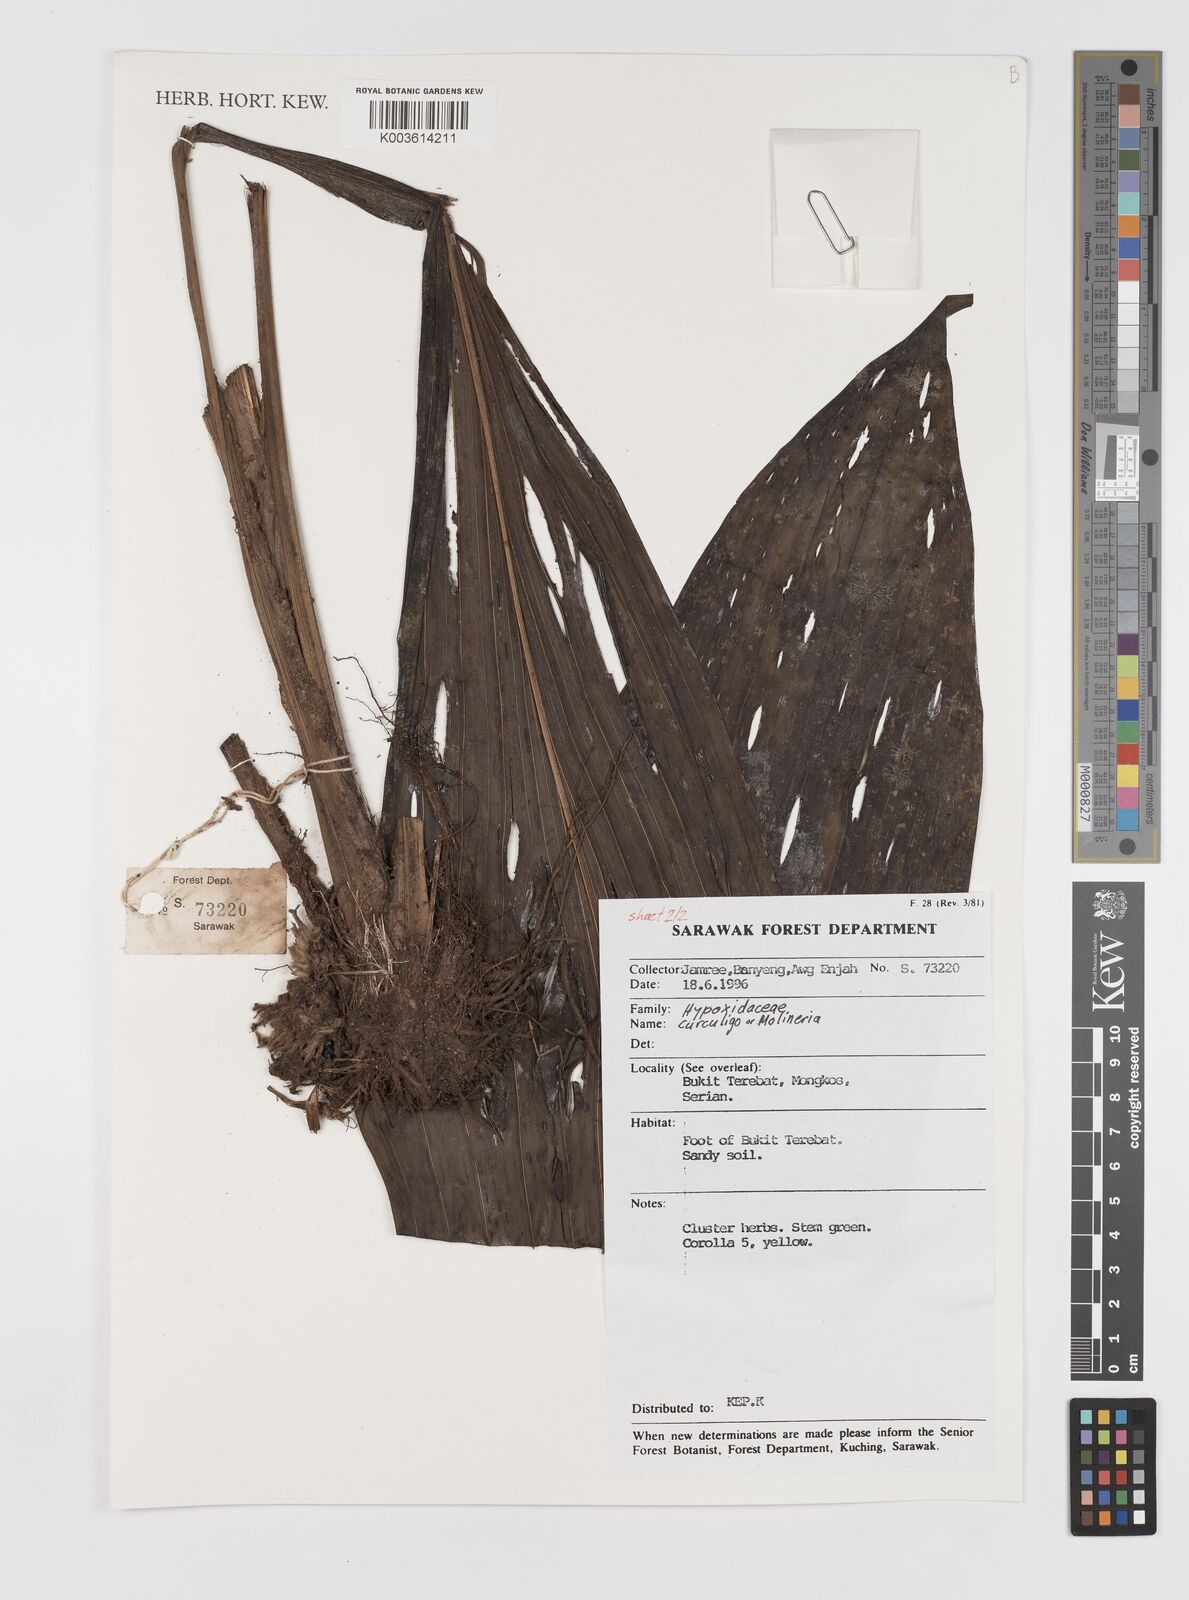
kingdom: Plantae
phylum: Tracheophyta
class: Liliopsida
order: Asparagales
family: Hypoxidaceae
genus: Curculigo
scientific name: Curculigo
